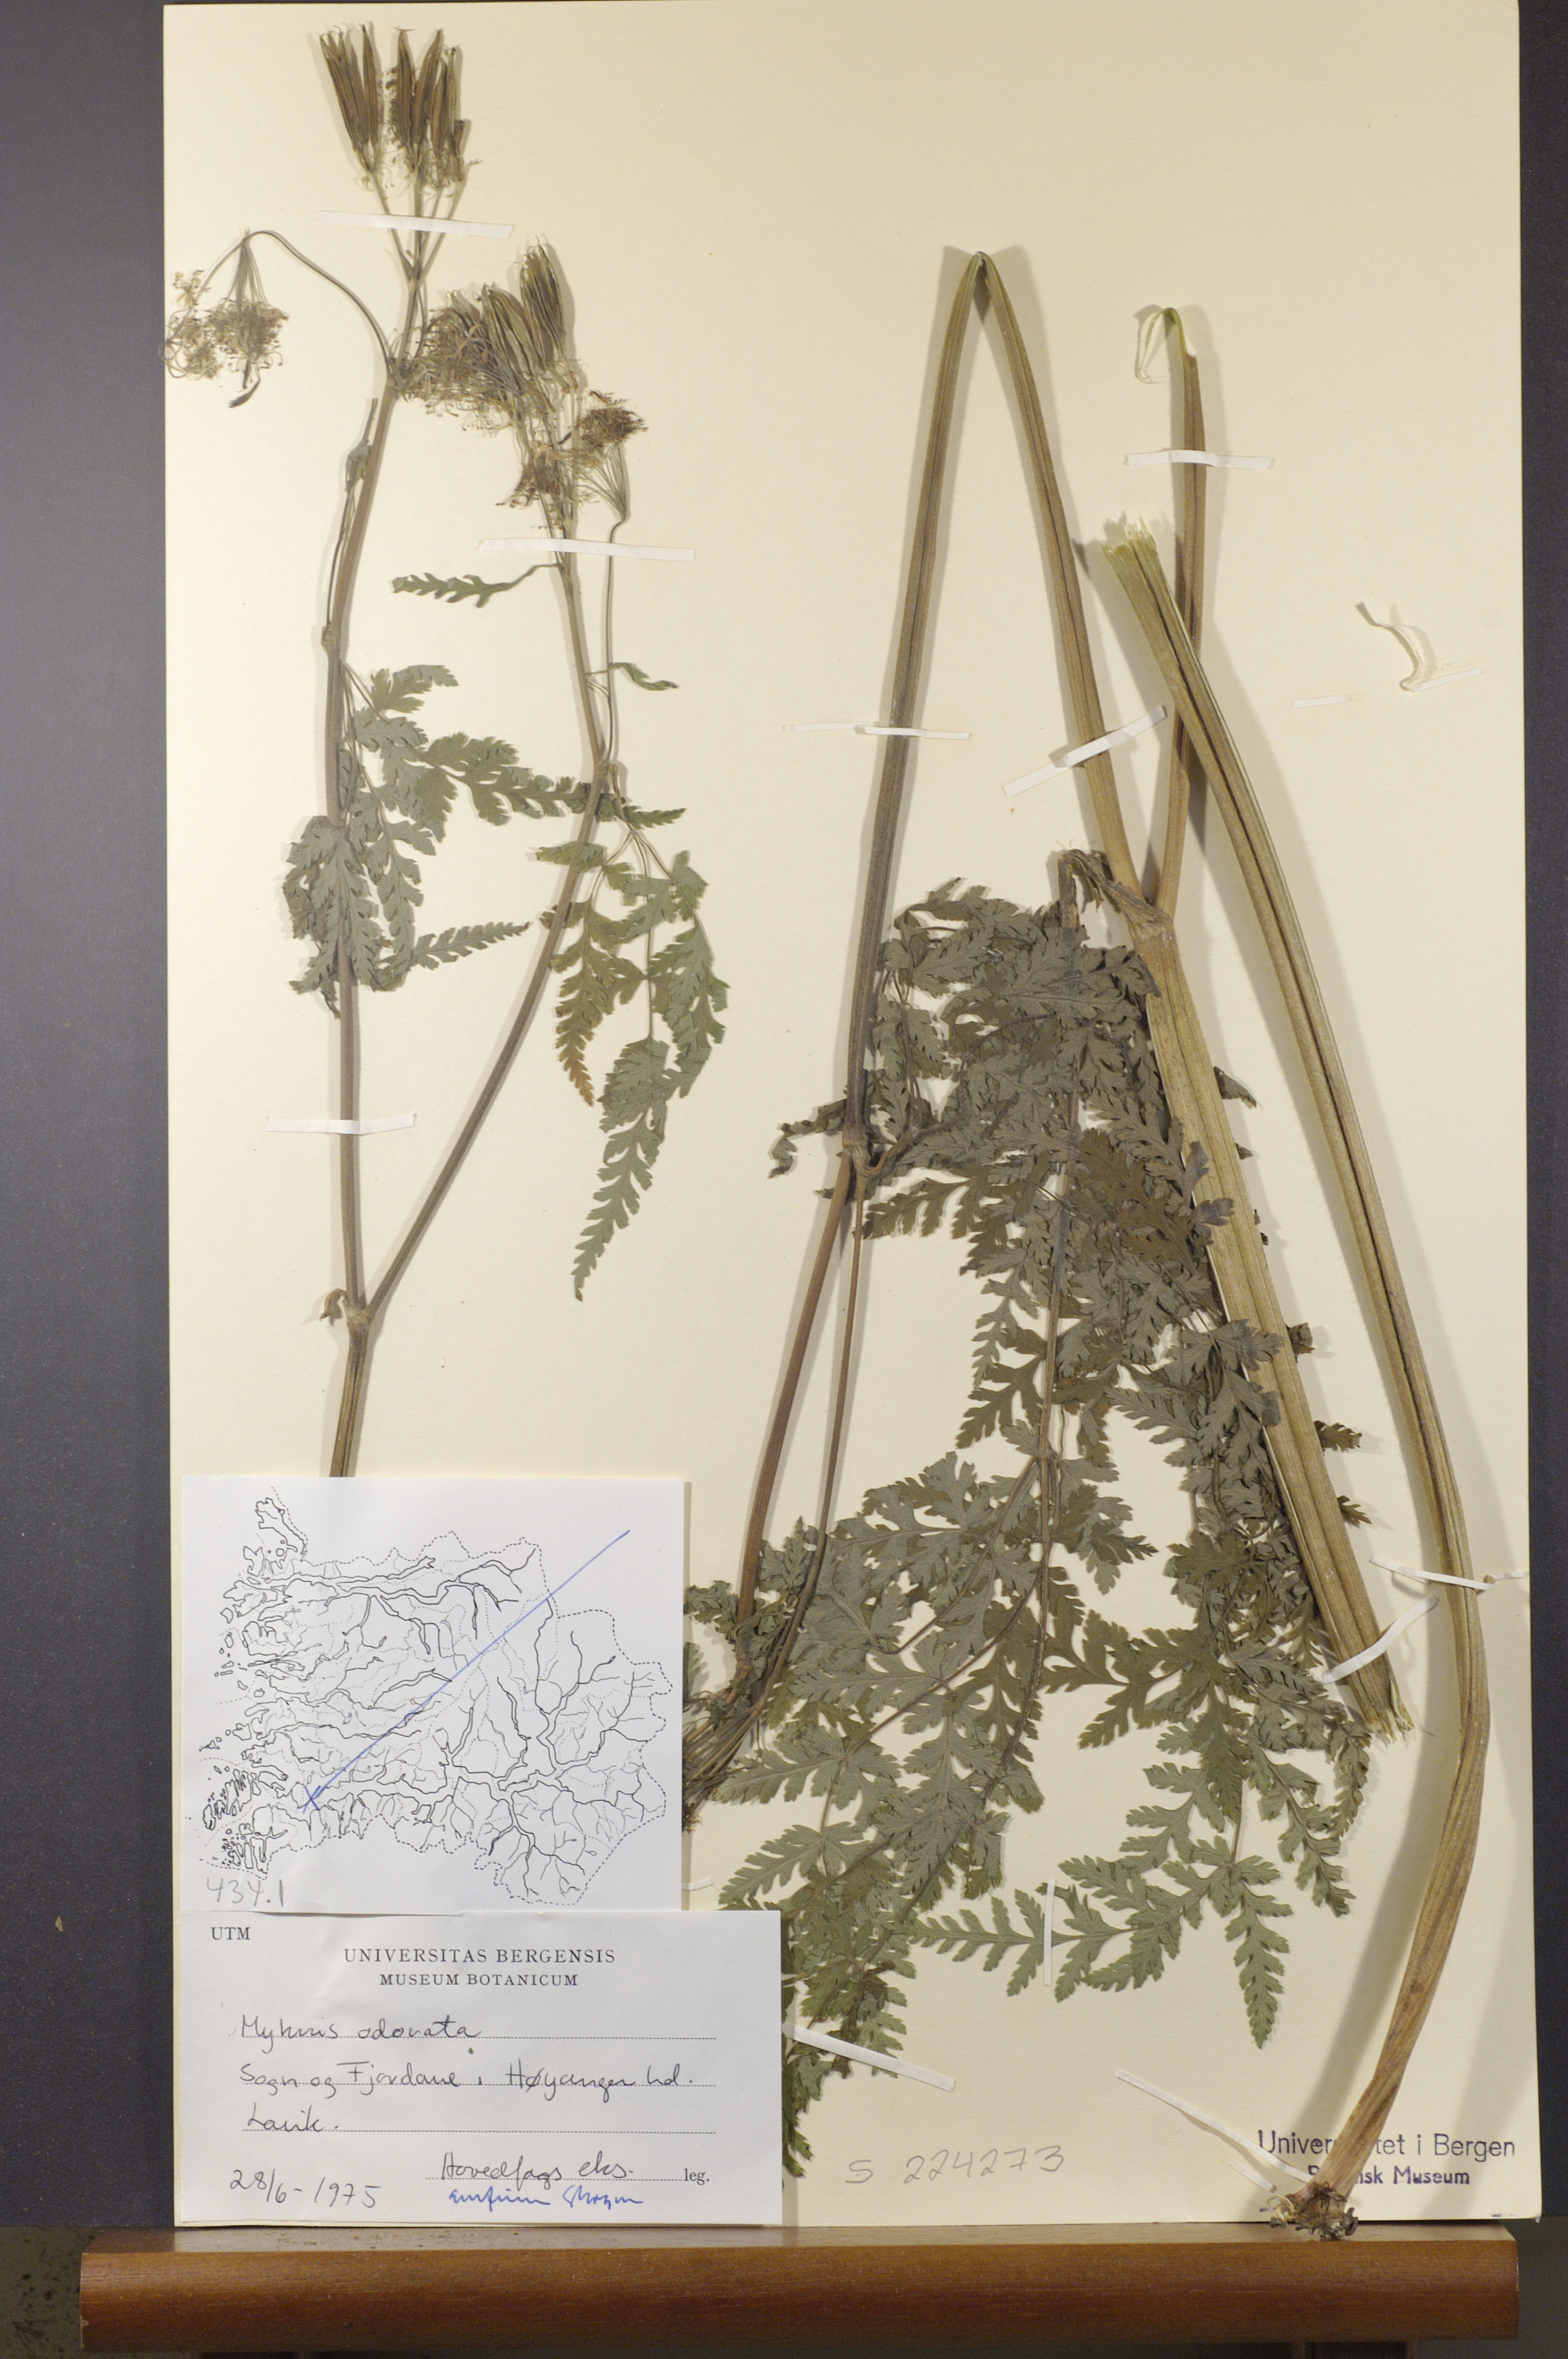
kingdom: Plantae
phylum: Tracheophyta
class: Magnoliopsida
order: Apiales
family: Apiaceae
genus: Myrrhis
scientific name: Myrrhis odorata
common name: Sweet cicely
